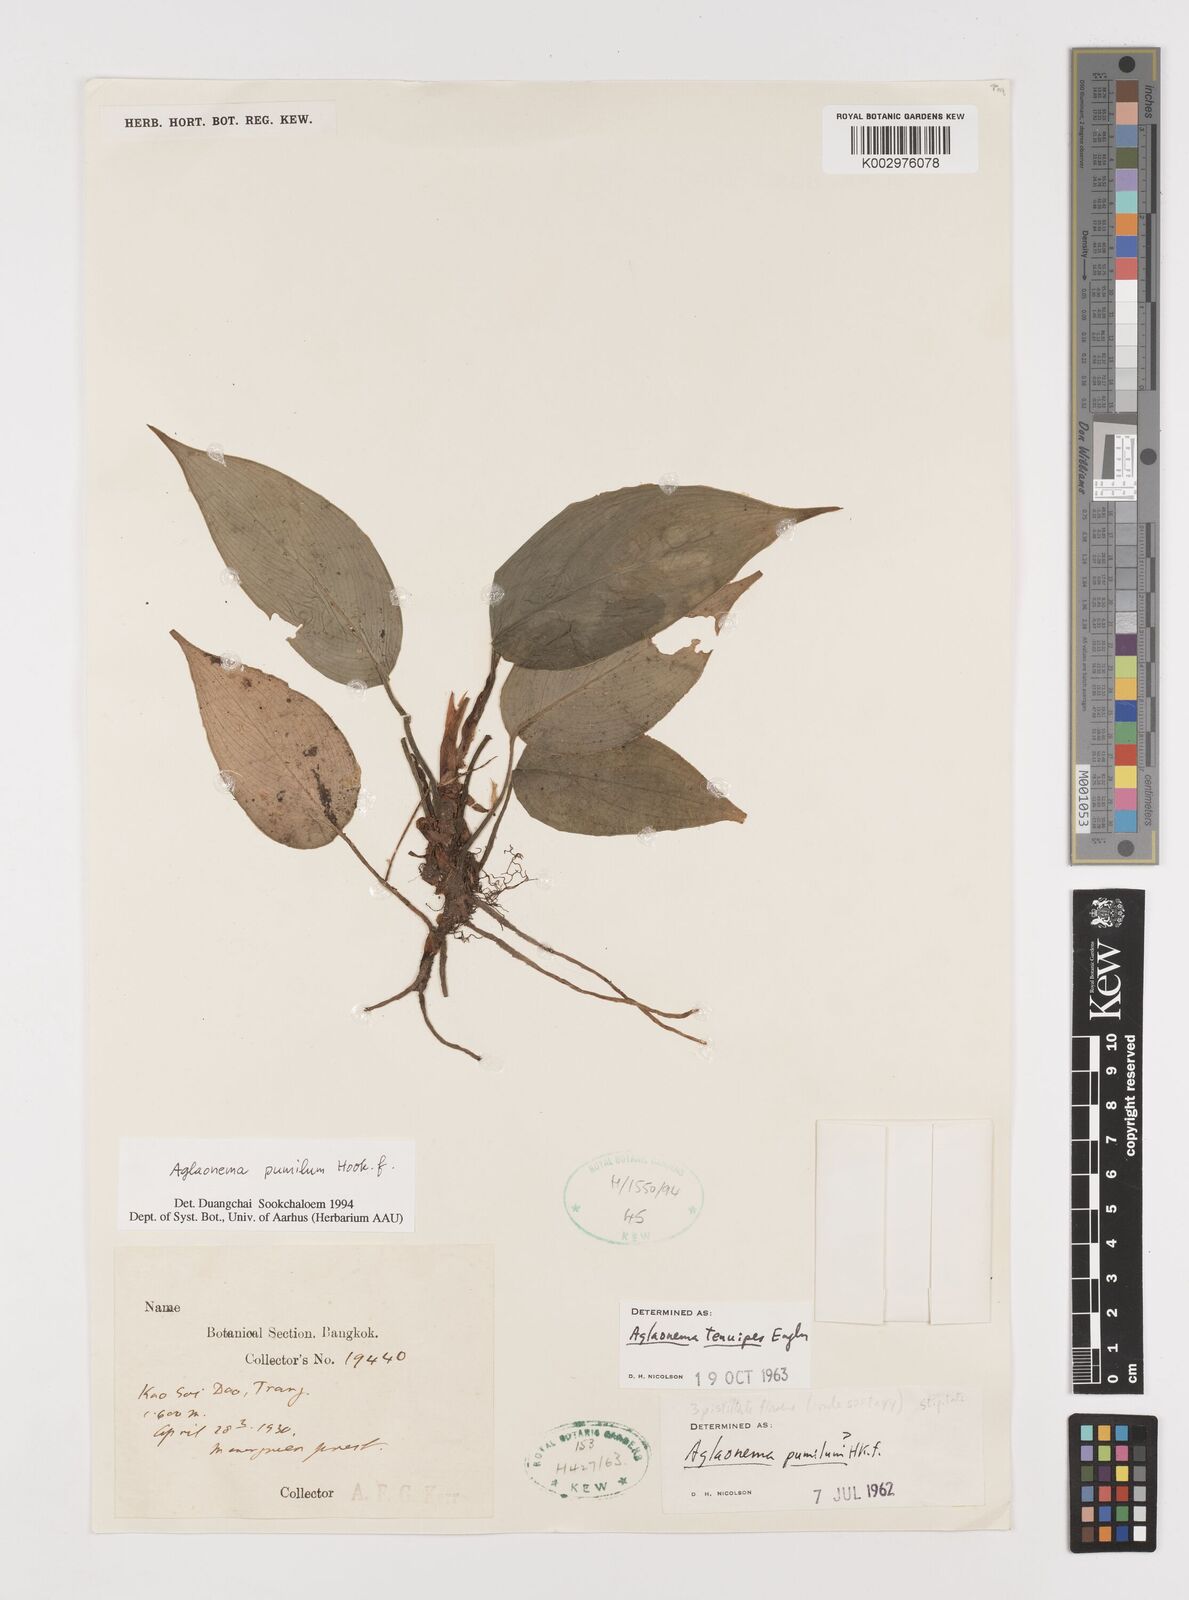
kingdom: Plantae
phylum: Tracheophyta
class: Liliopsida
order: Alismatales
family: Araceae
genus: Aglaonema
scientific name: Aglaonema pumilum
